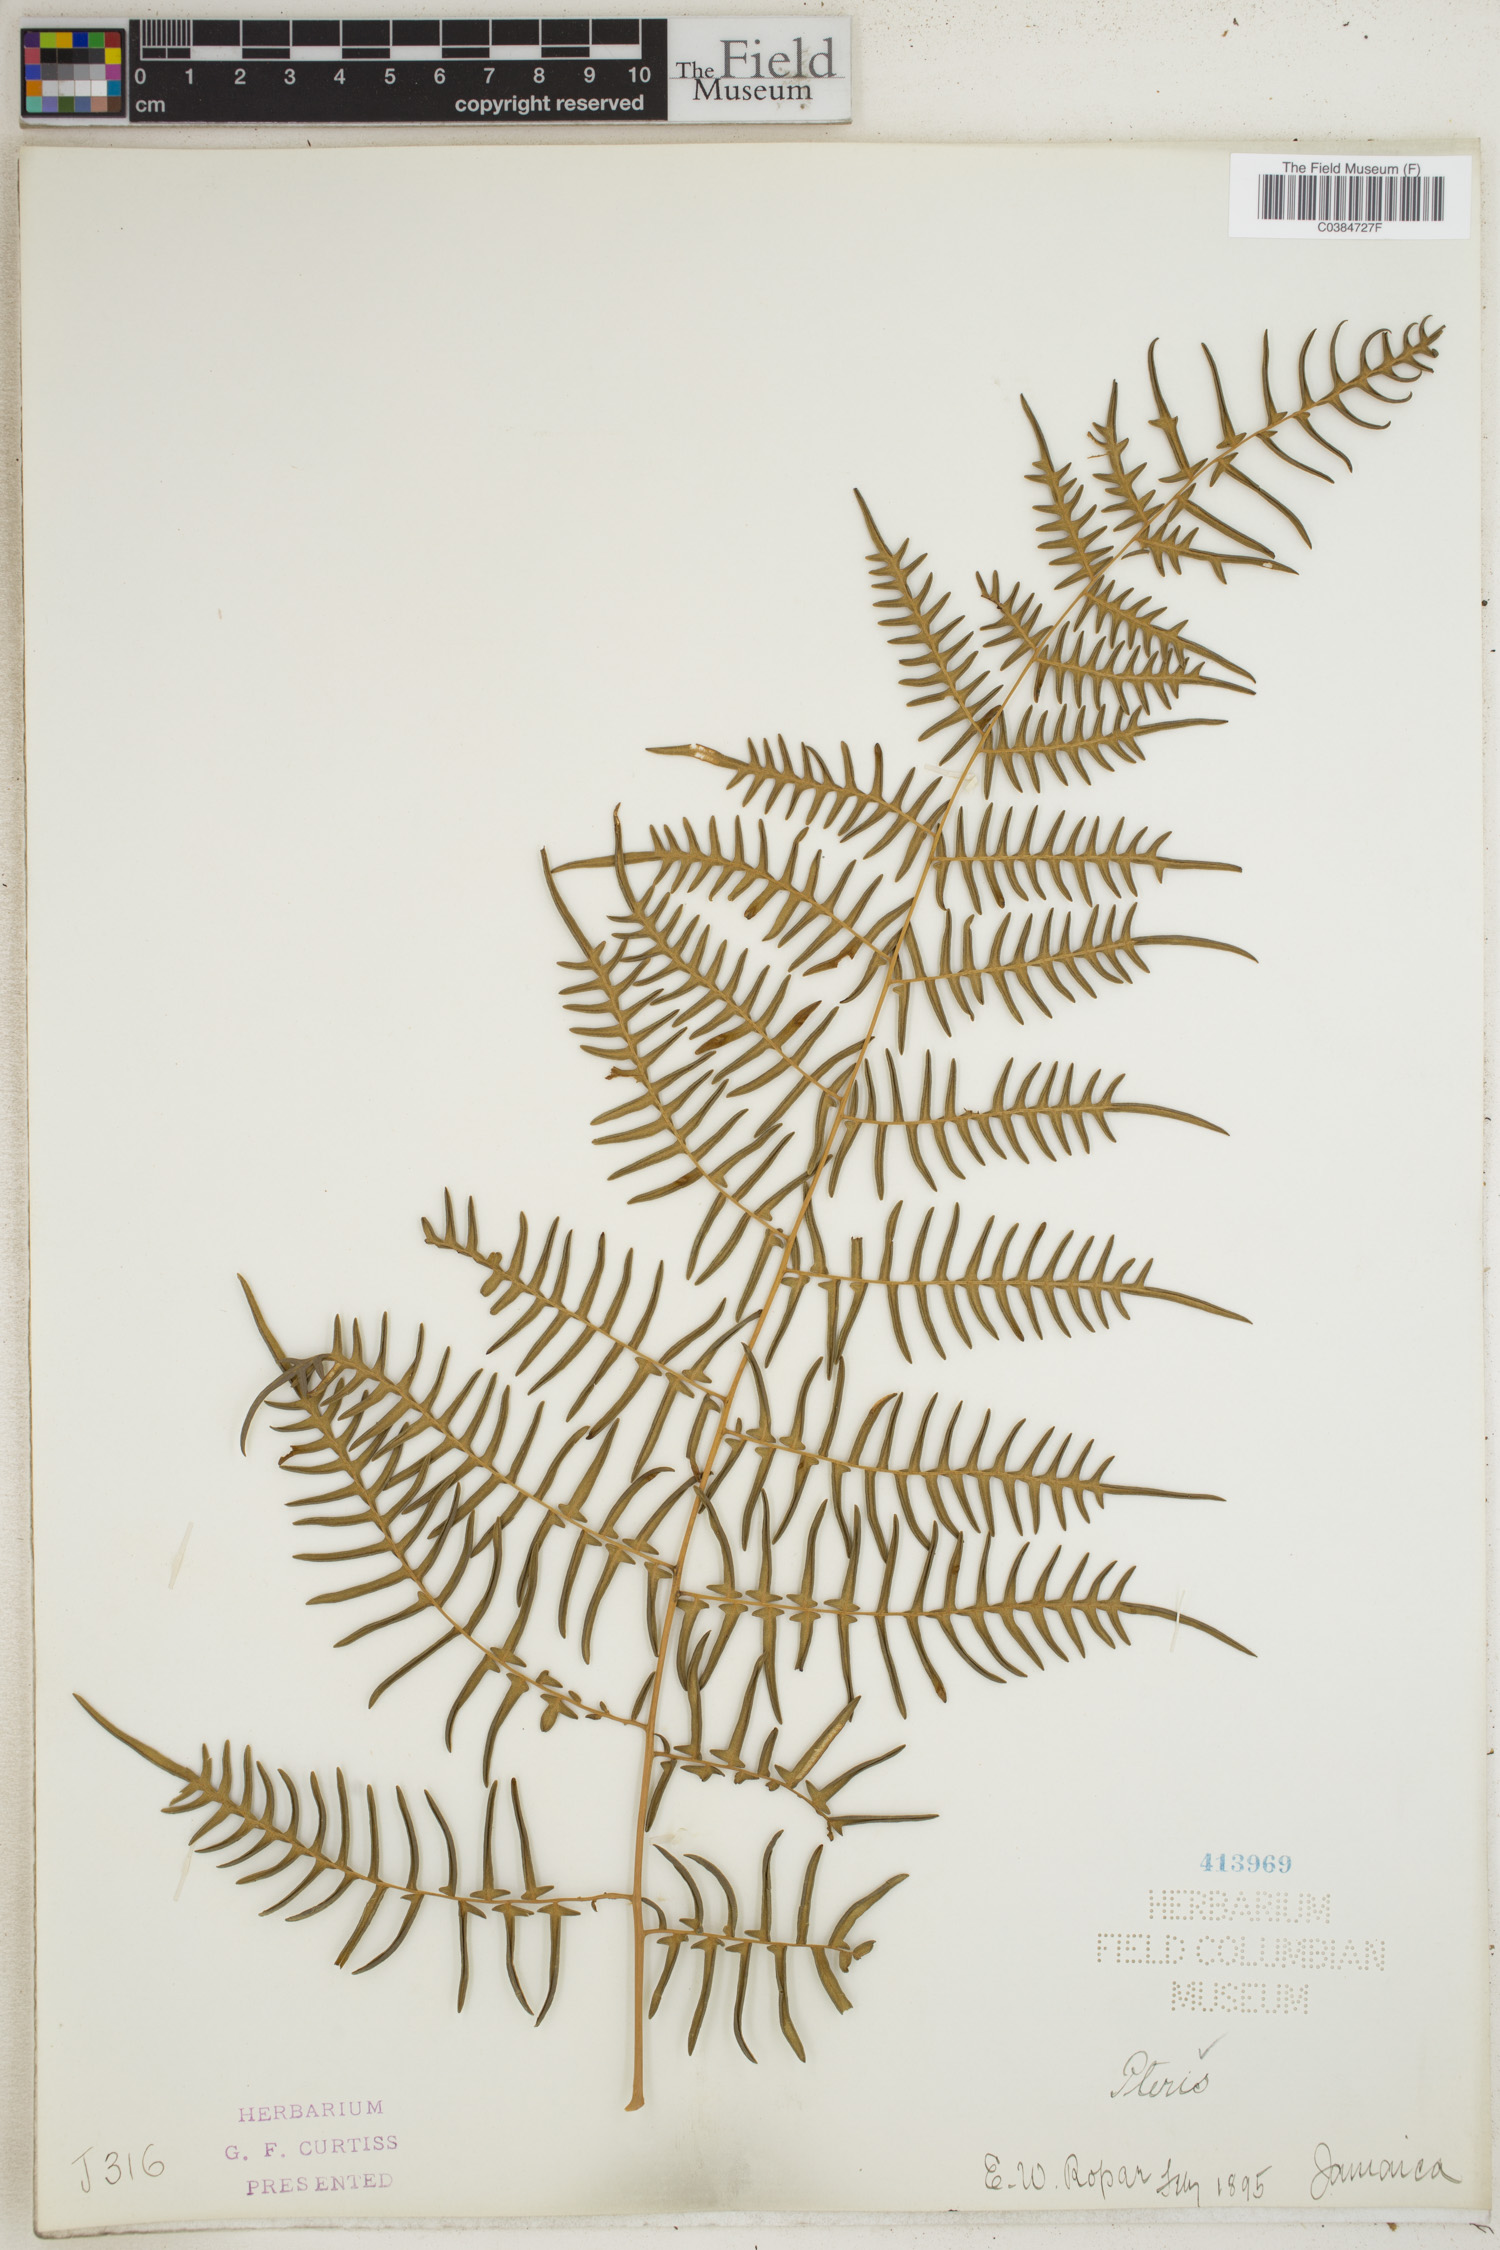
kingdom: Plantae
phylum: Tracheophyta
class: Polypodiopsida
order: Polypodiales
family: Pteridaceae
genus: Pteris
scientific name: Pteris
